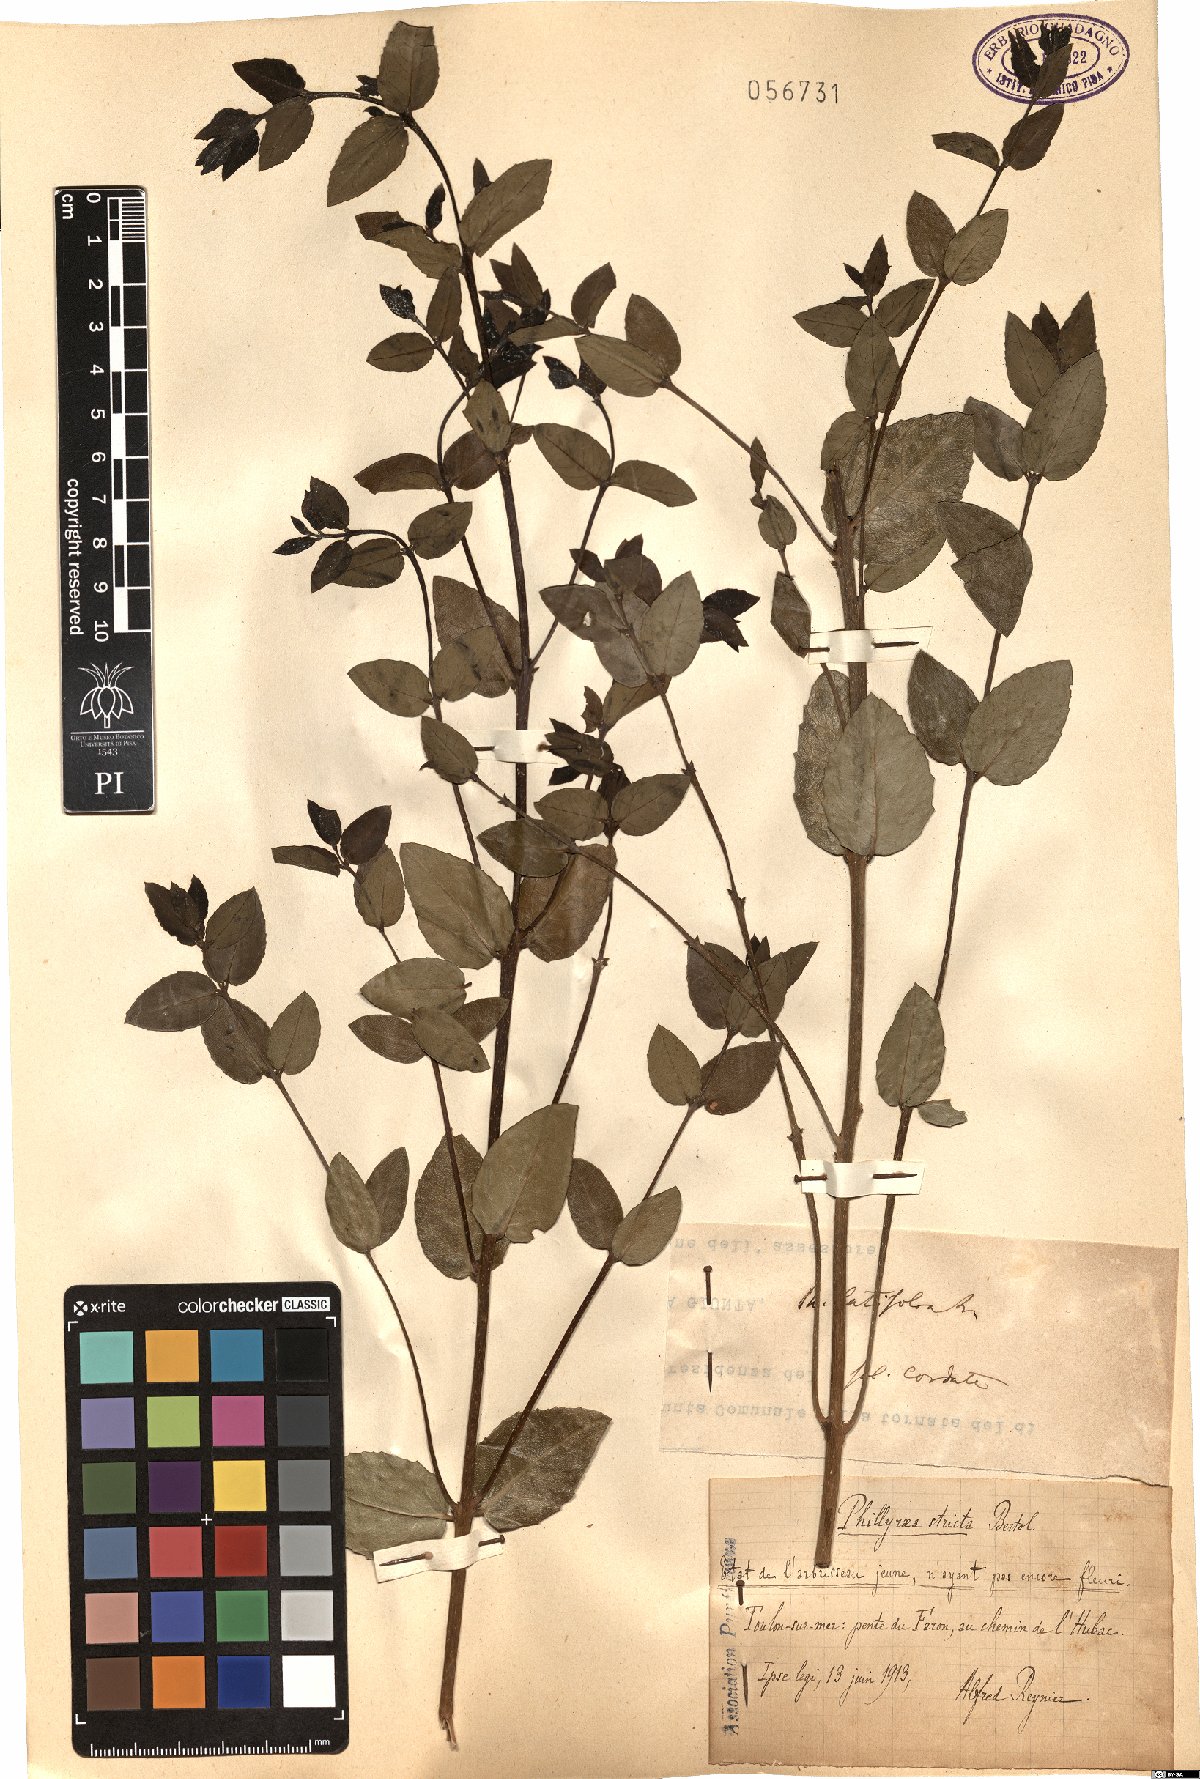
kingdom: Plantae
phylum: Tracheophyta
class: Magnoliopsida
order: Lamiales
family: Oleaceae
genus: Phillyrea
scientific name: Phillyrea latifolia
